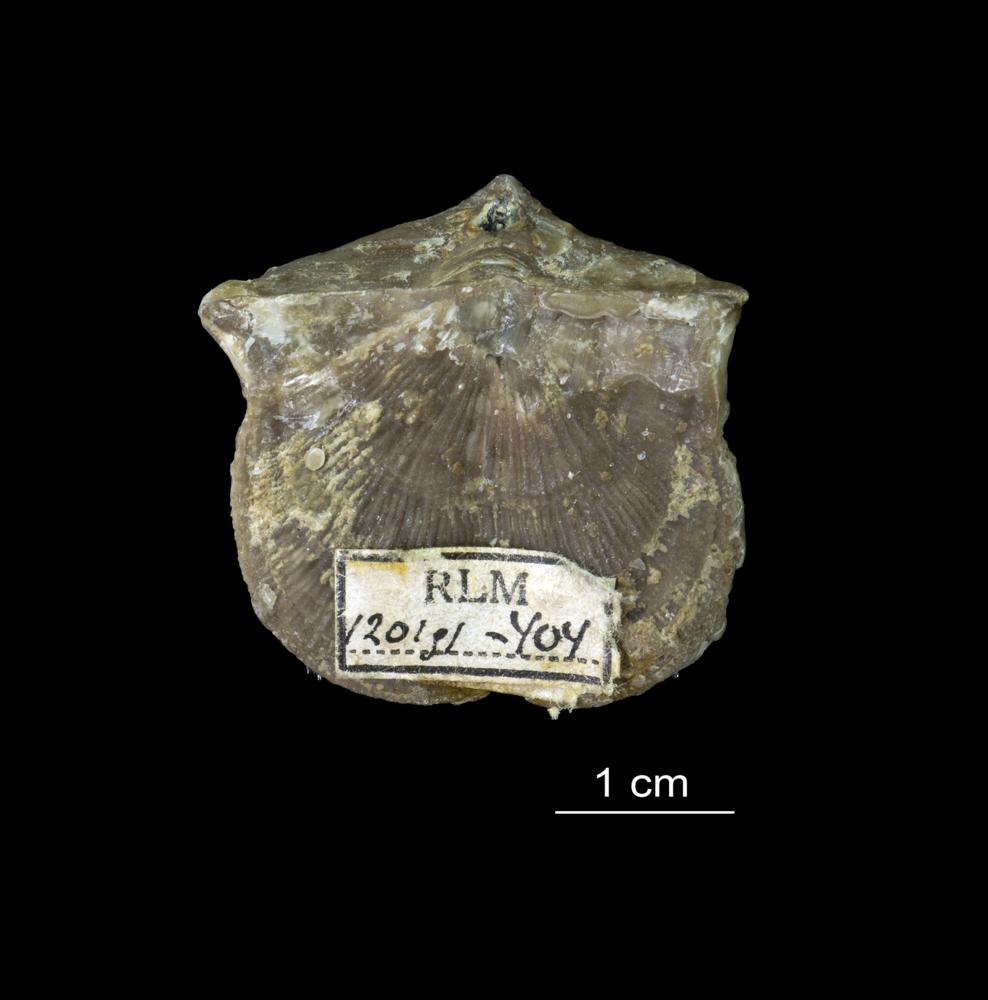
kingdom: Animalia
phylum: Brachiopoda
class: Rhynchonellata
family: Clitambonitidae
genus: Vellamo
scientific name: Vellamo emarginata
